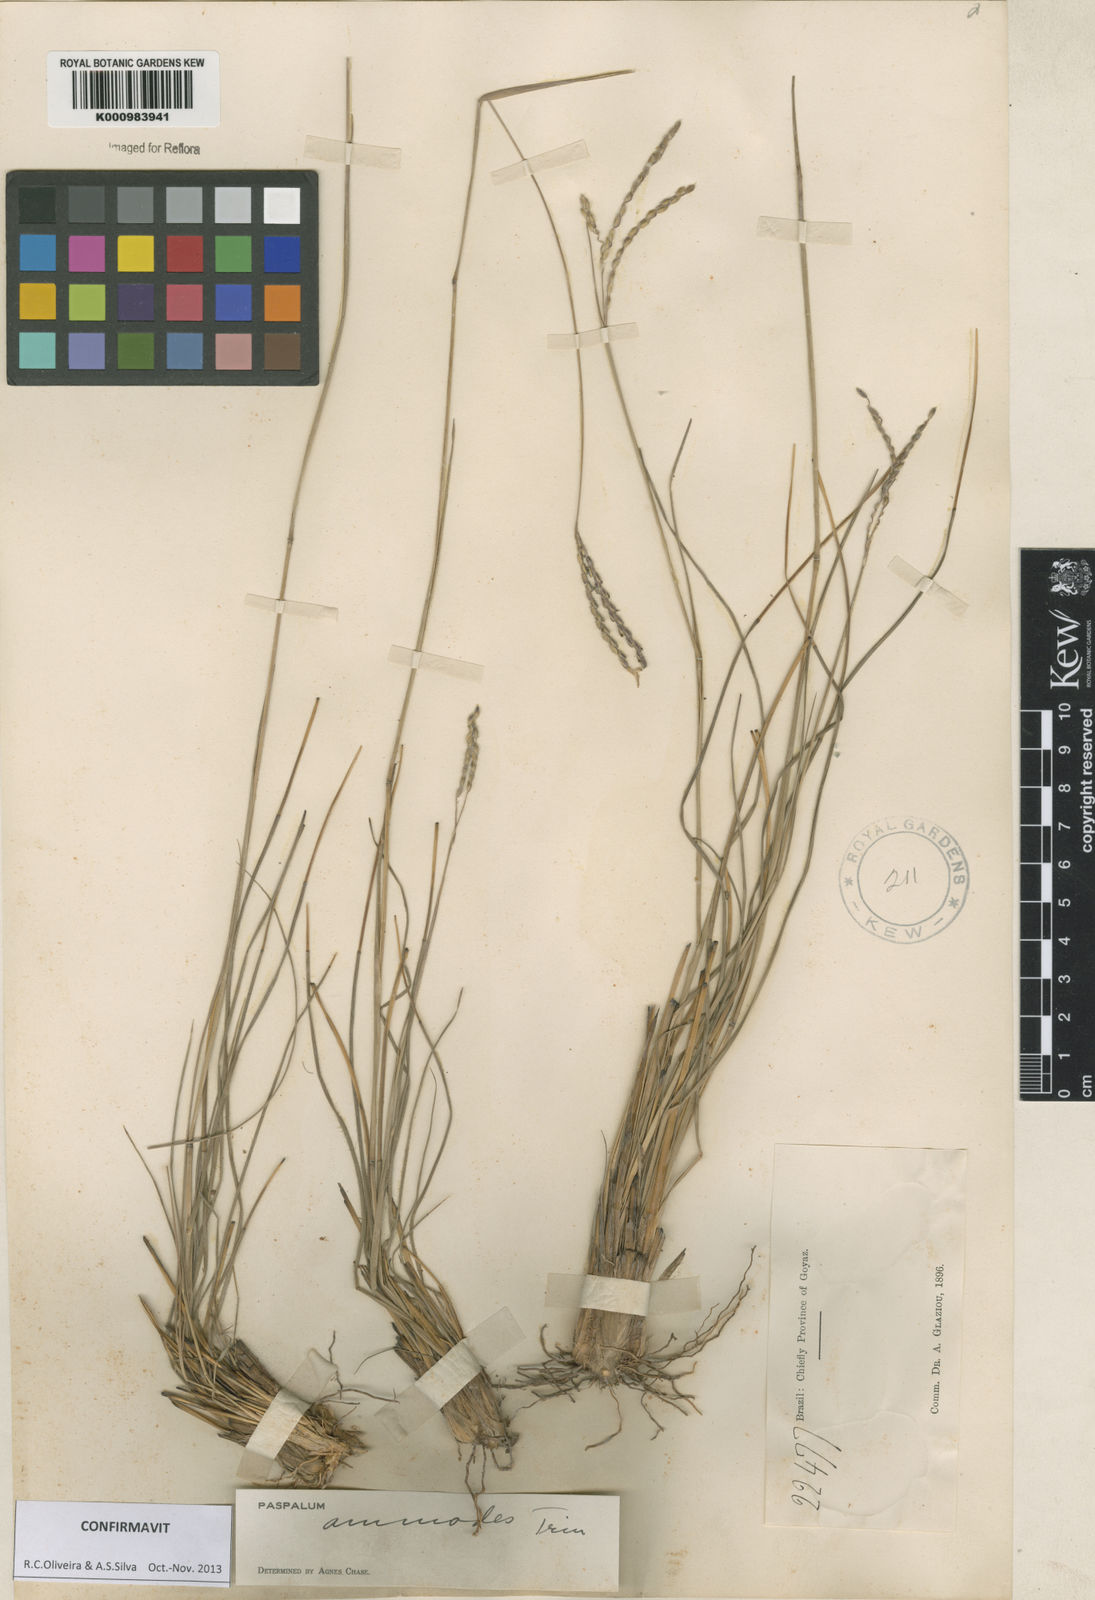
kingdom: Plantae
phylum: Tracheophyta
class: Liliopsida
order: Poales
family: Poaceae
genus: Paspalum
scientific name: Paspalum ammodes
